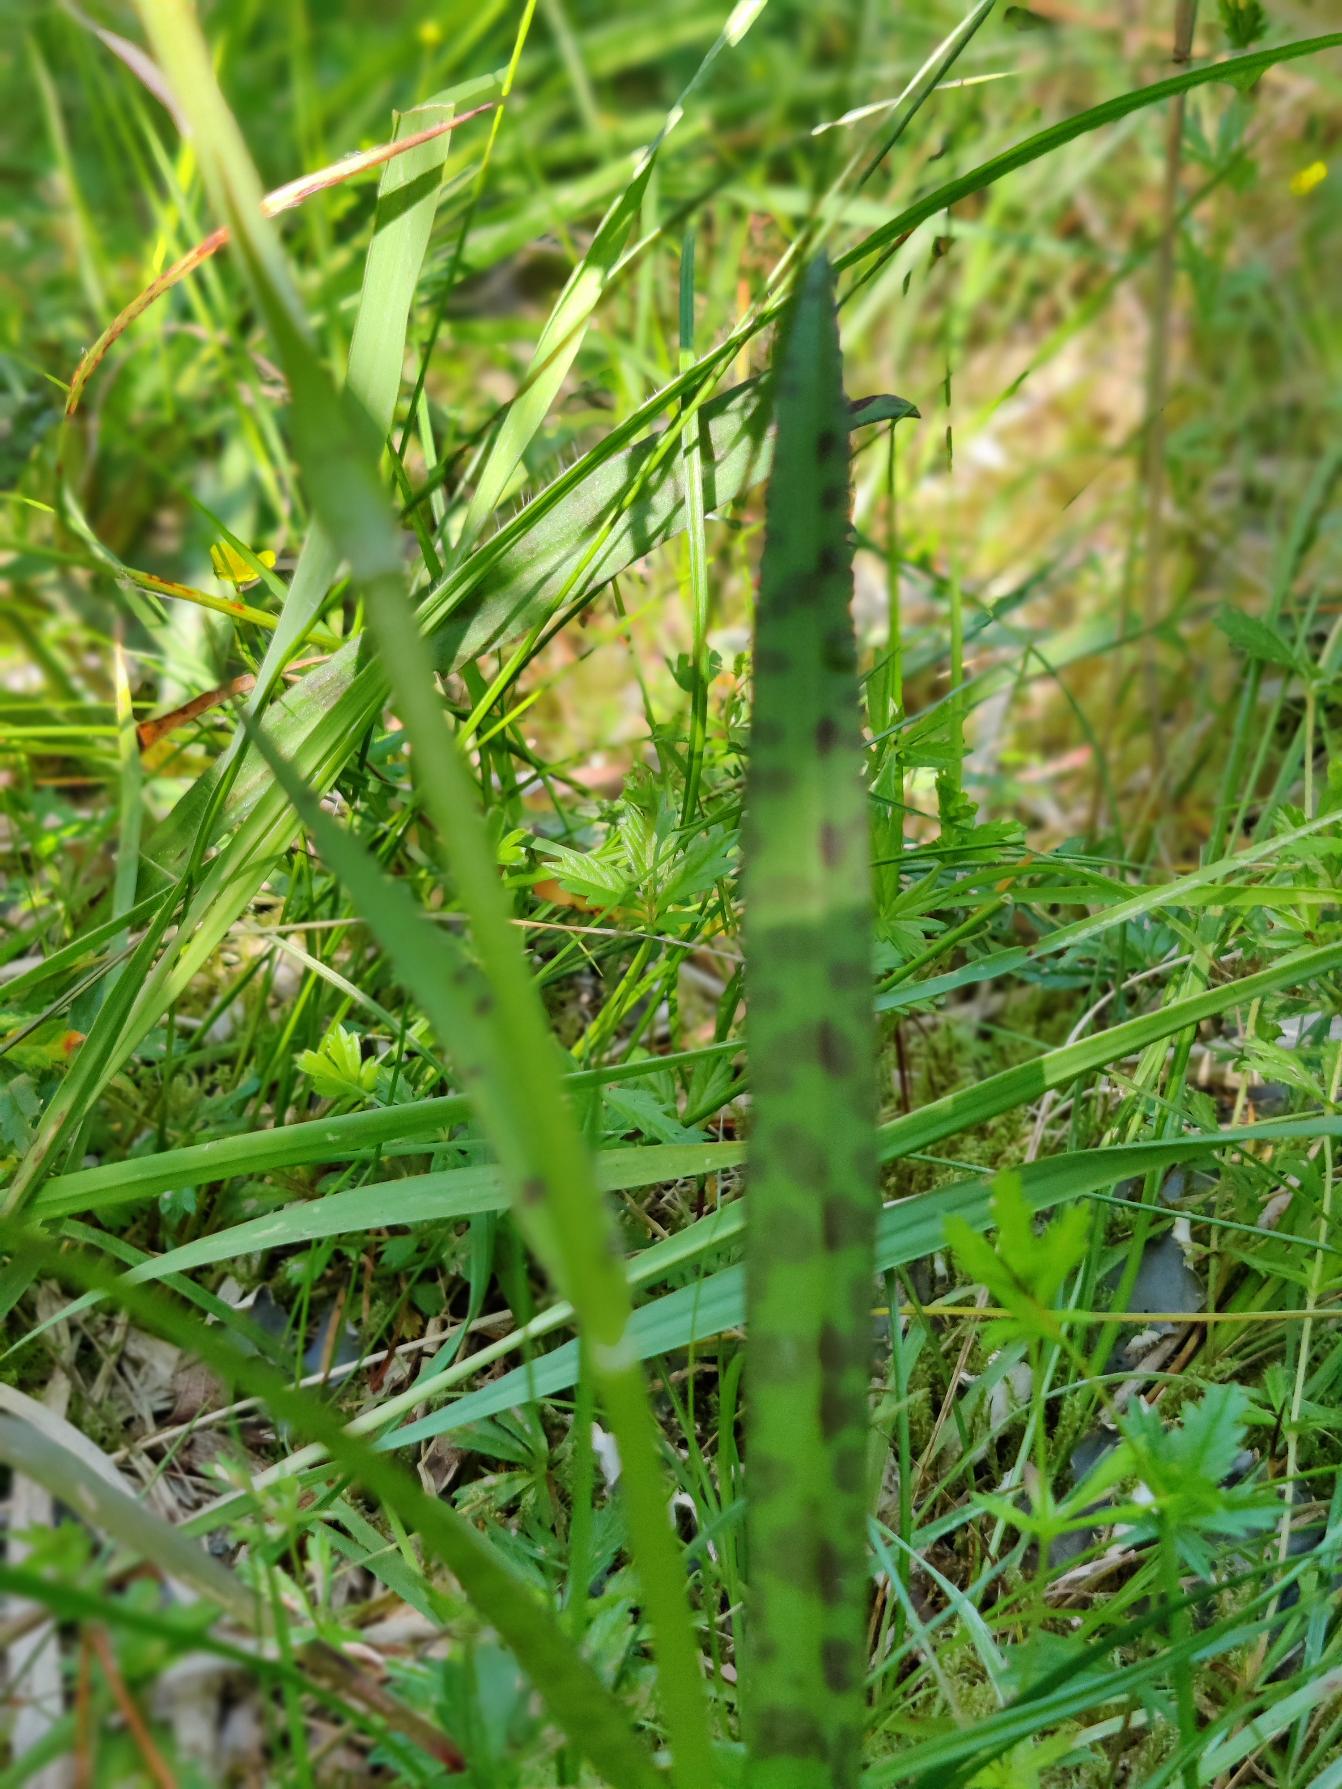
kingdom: Plantae
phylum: Tracheophyta
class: Liliopsida
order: Asparagales
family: Orchidaceae
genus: Dactylorhiza
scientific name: Dactylorhiza maculata
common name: Plettet gøgeurt
